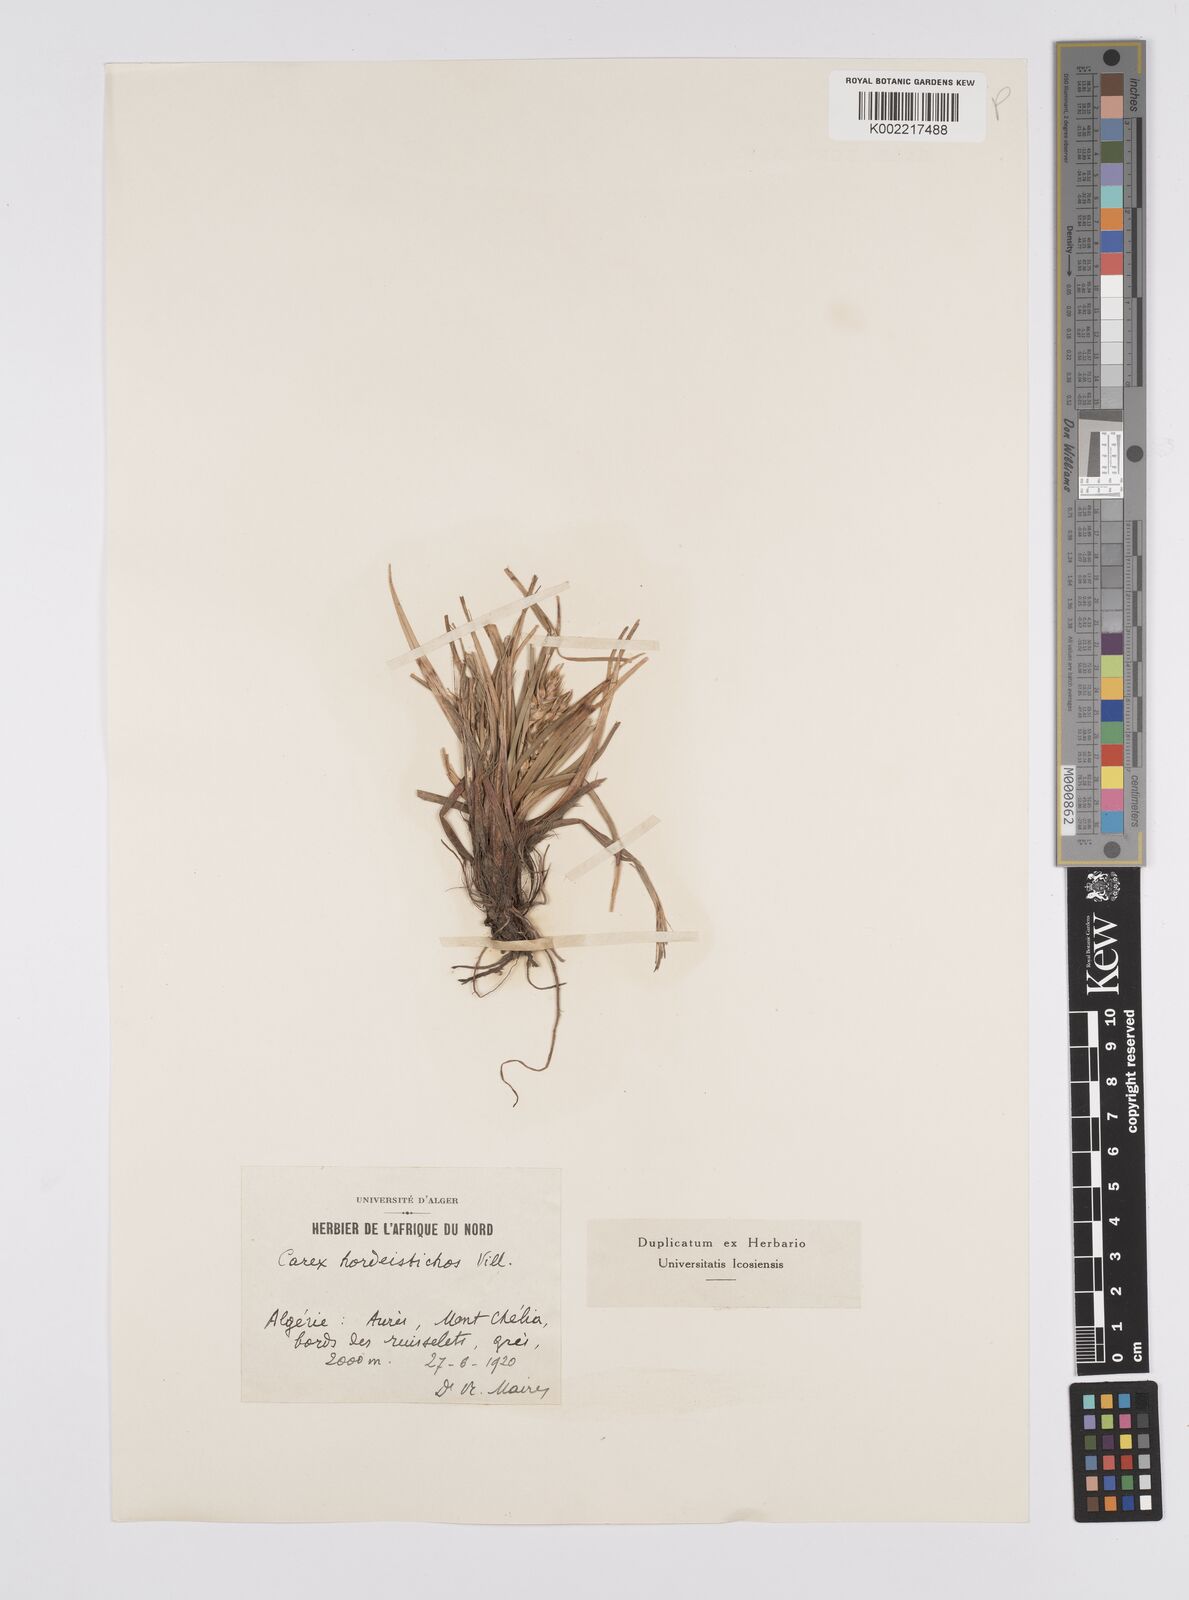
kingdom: Plantae
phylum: Tracheophyta
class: Liliopsida
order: Poales
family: Cyperaceae
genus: Carex
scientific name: Carex hordeistichos
